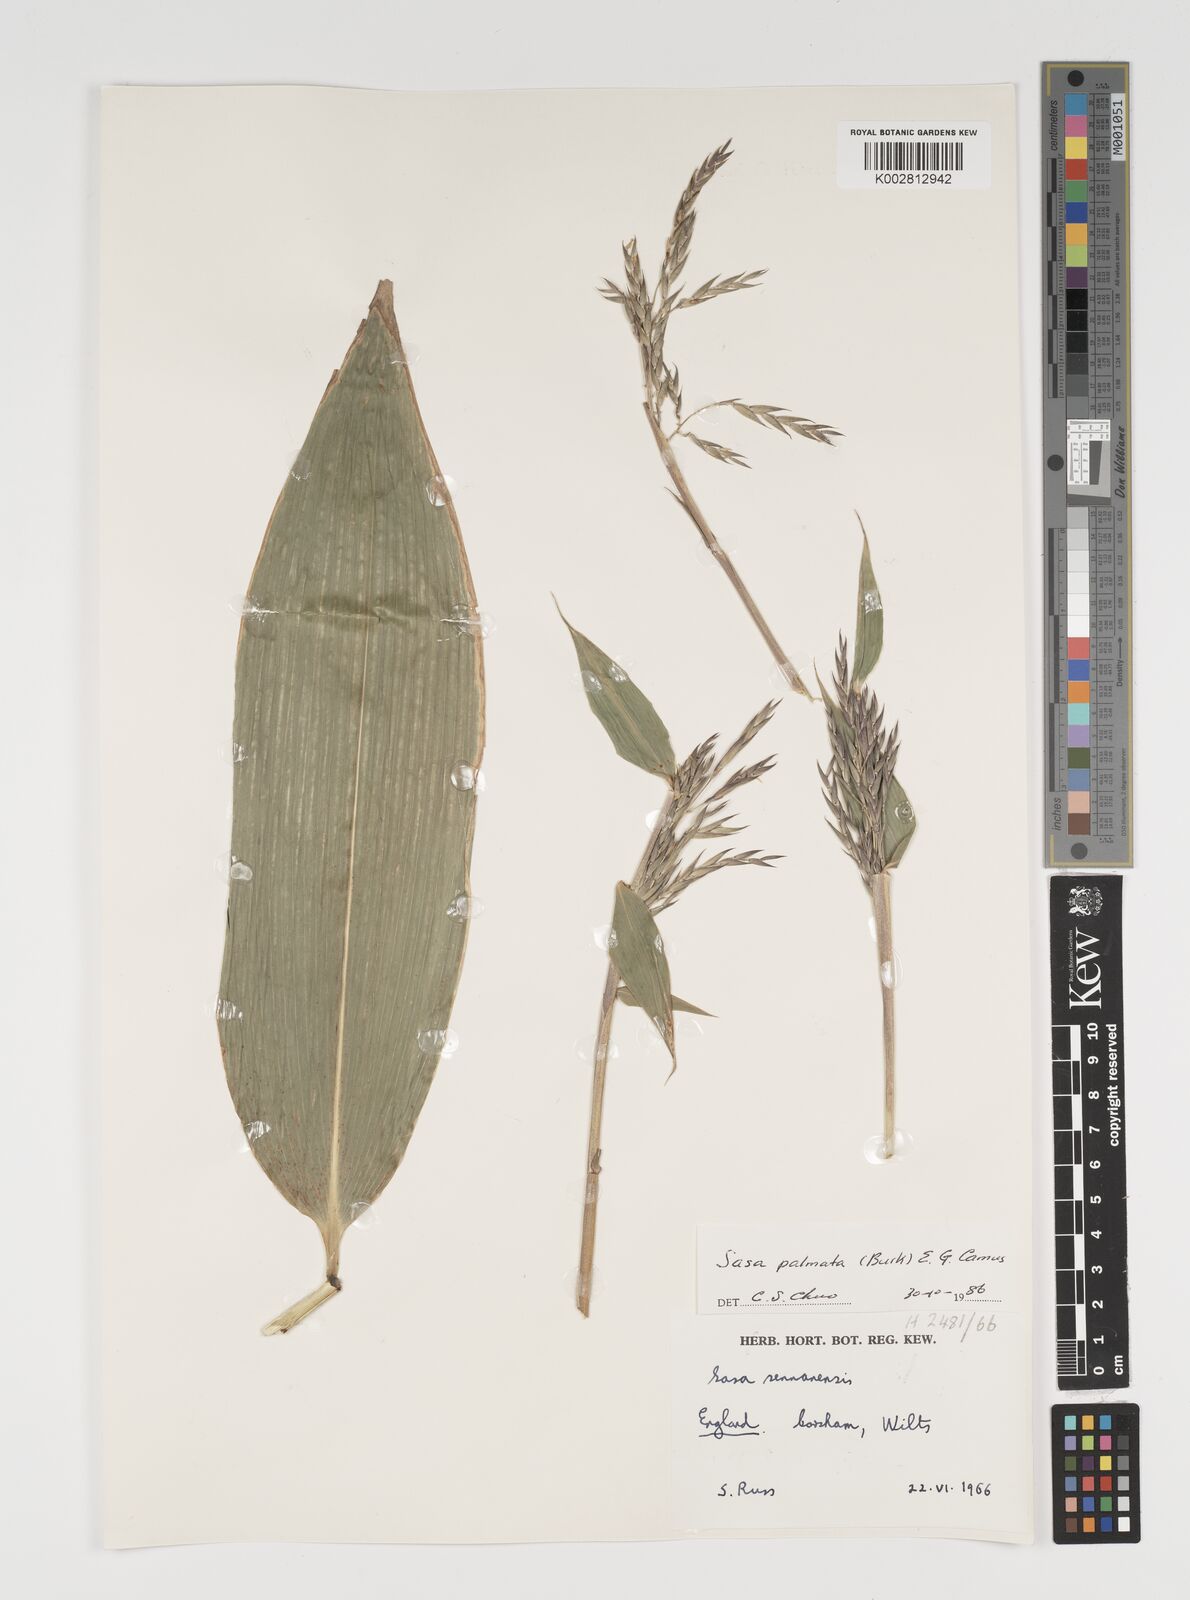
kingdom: Plantae
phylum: Tracheophyta
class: Liliopsida
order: Poales
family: Poaceae
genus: Sasa
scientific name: Sasa palmata
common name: Broad-leaved bamboo
